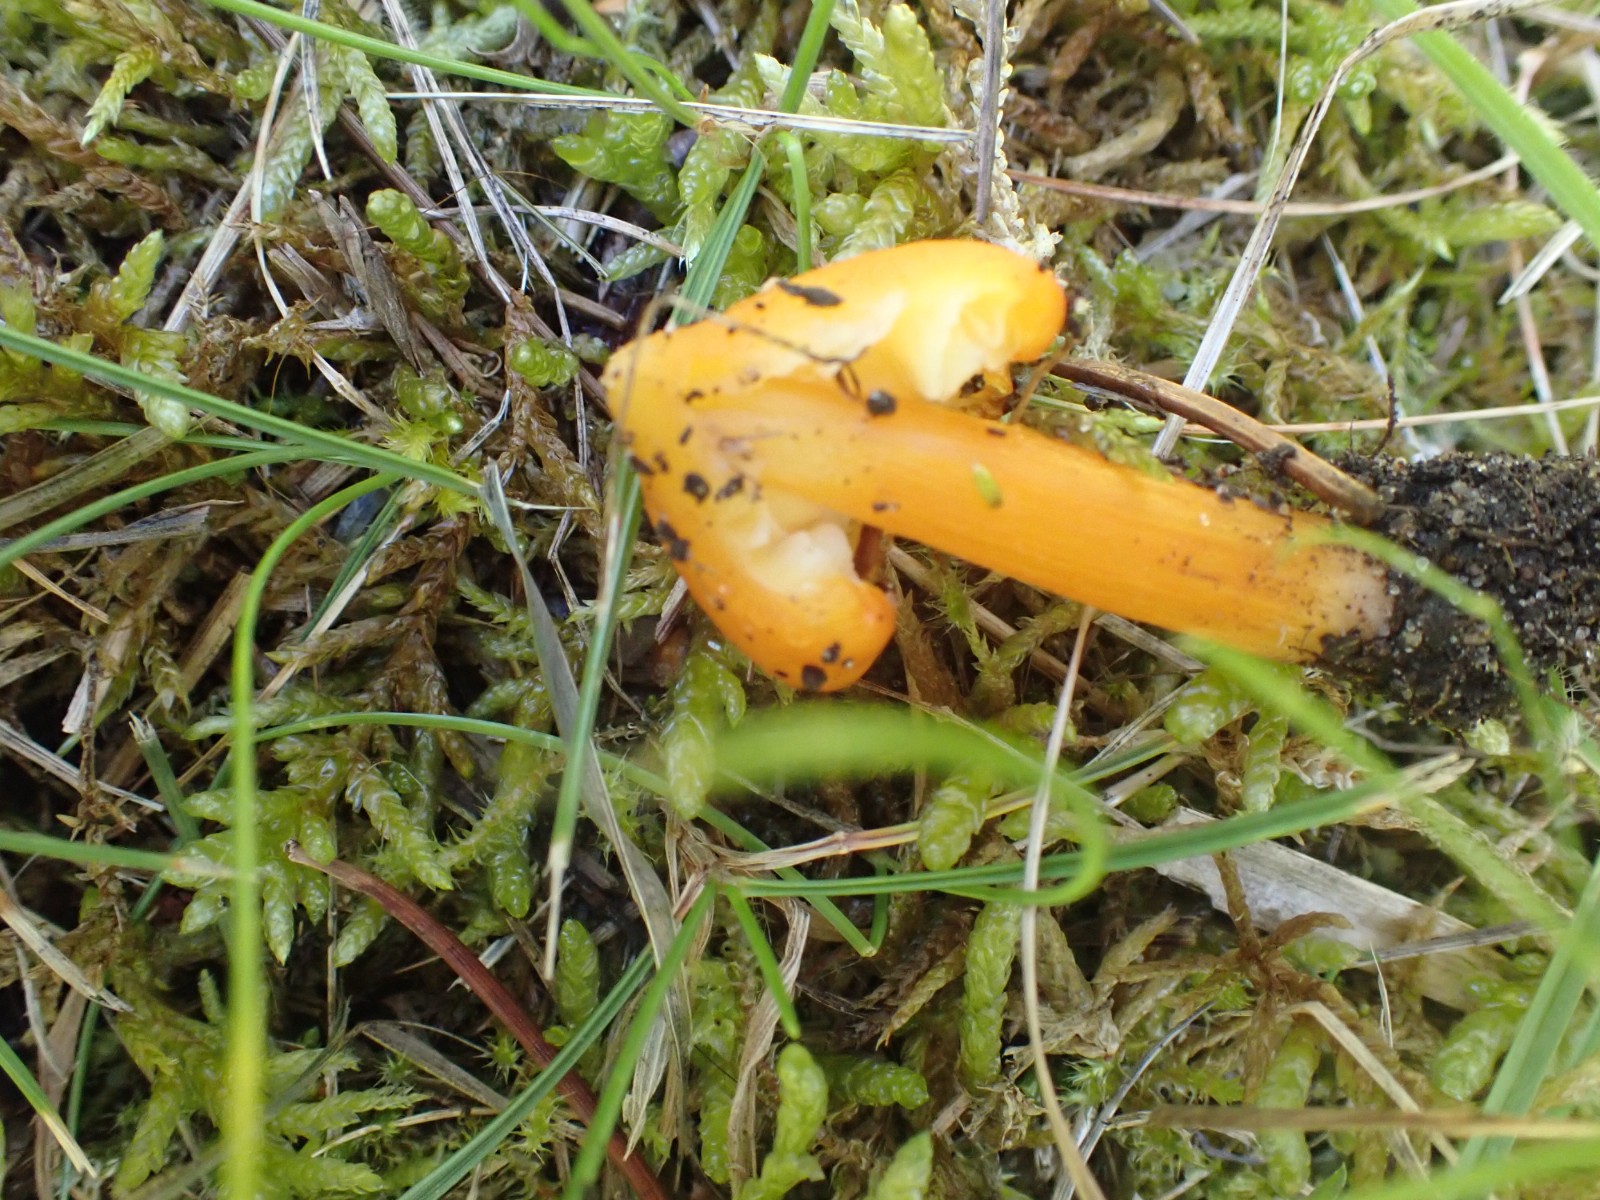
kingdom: Fungi
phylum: Basidiomycota
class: Agaricomycetes
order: Agaricales
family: Hygrophoraceae
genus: Hygrocybe
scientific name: Hygrocybe acutoconica
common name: spidspuklet vokshat
